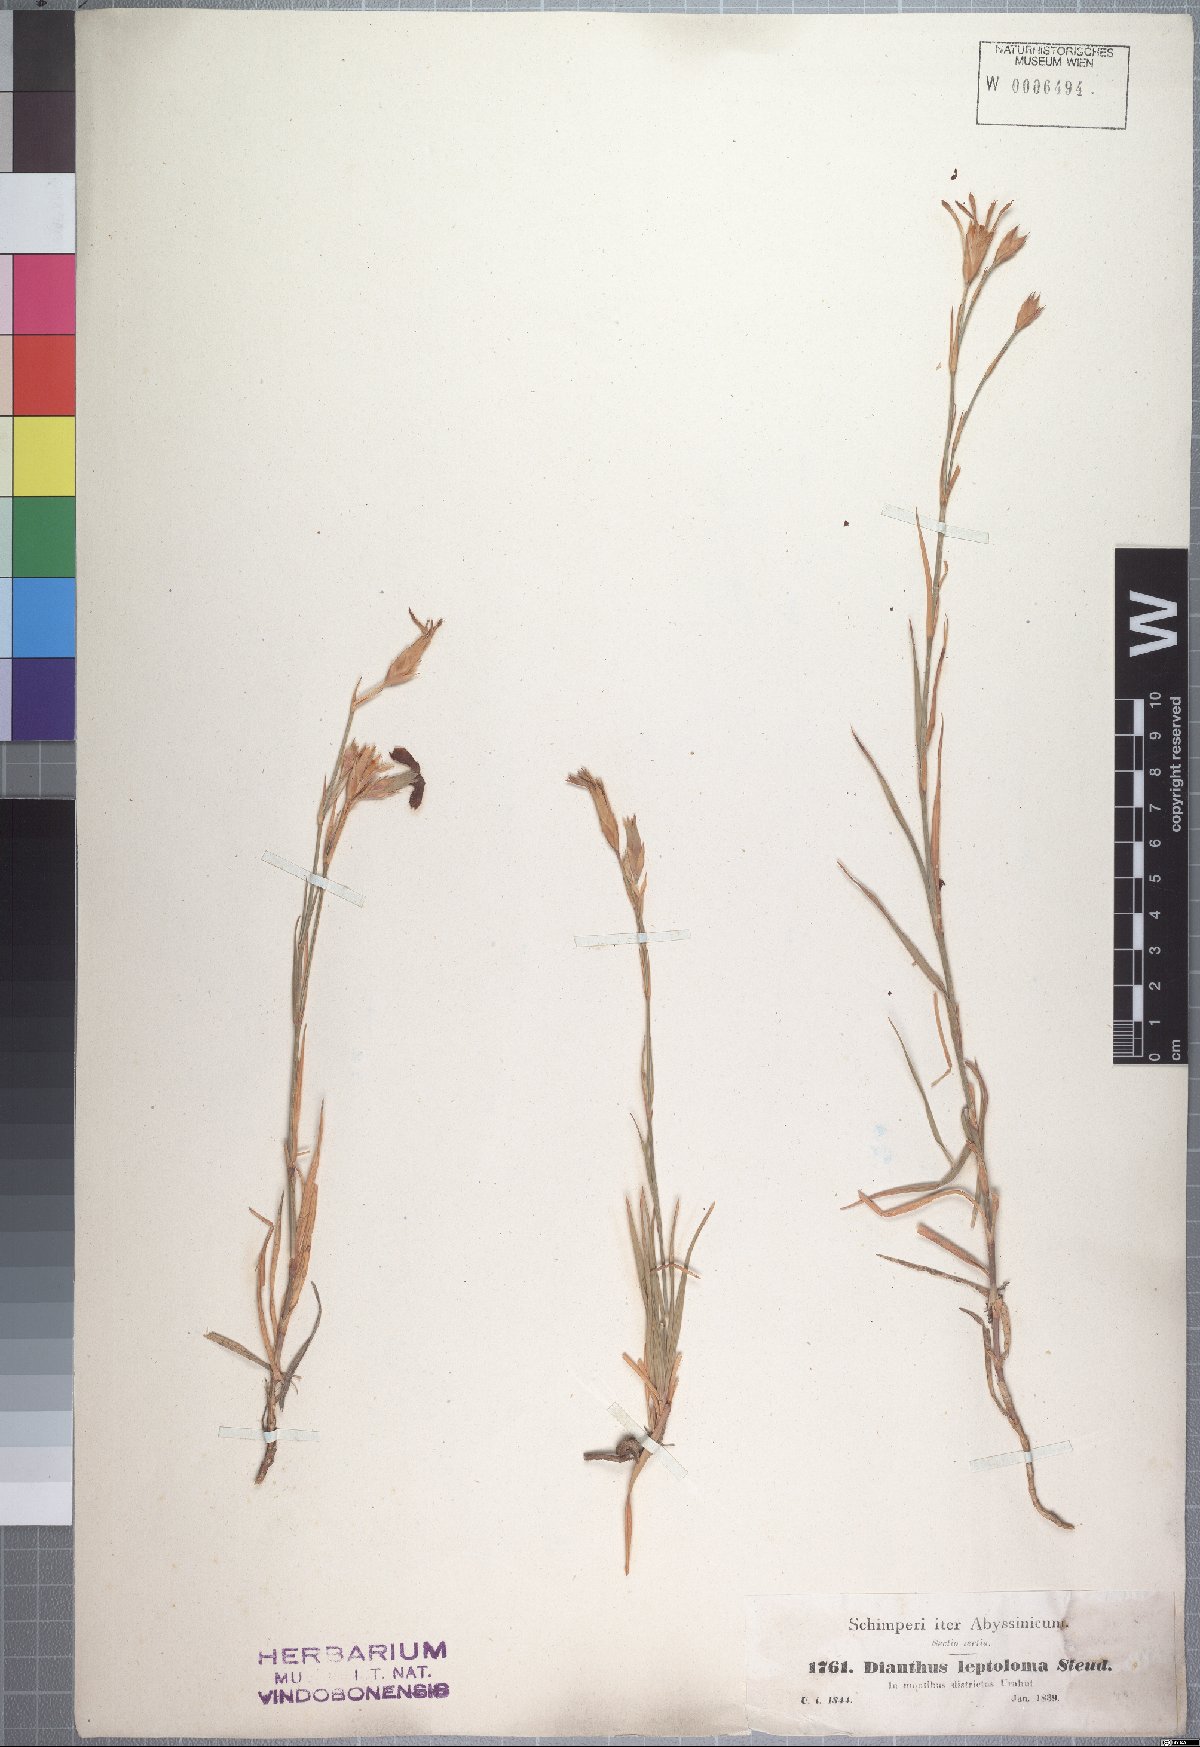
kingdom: Plantae
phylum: Tracheophyta
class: Magnoliopsida
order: Caryophyllales
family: Caryophyllaceae
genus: Dianthus
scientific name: Dianthus leptoloma
